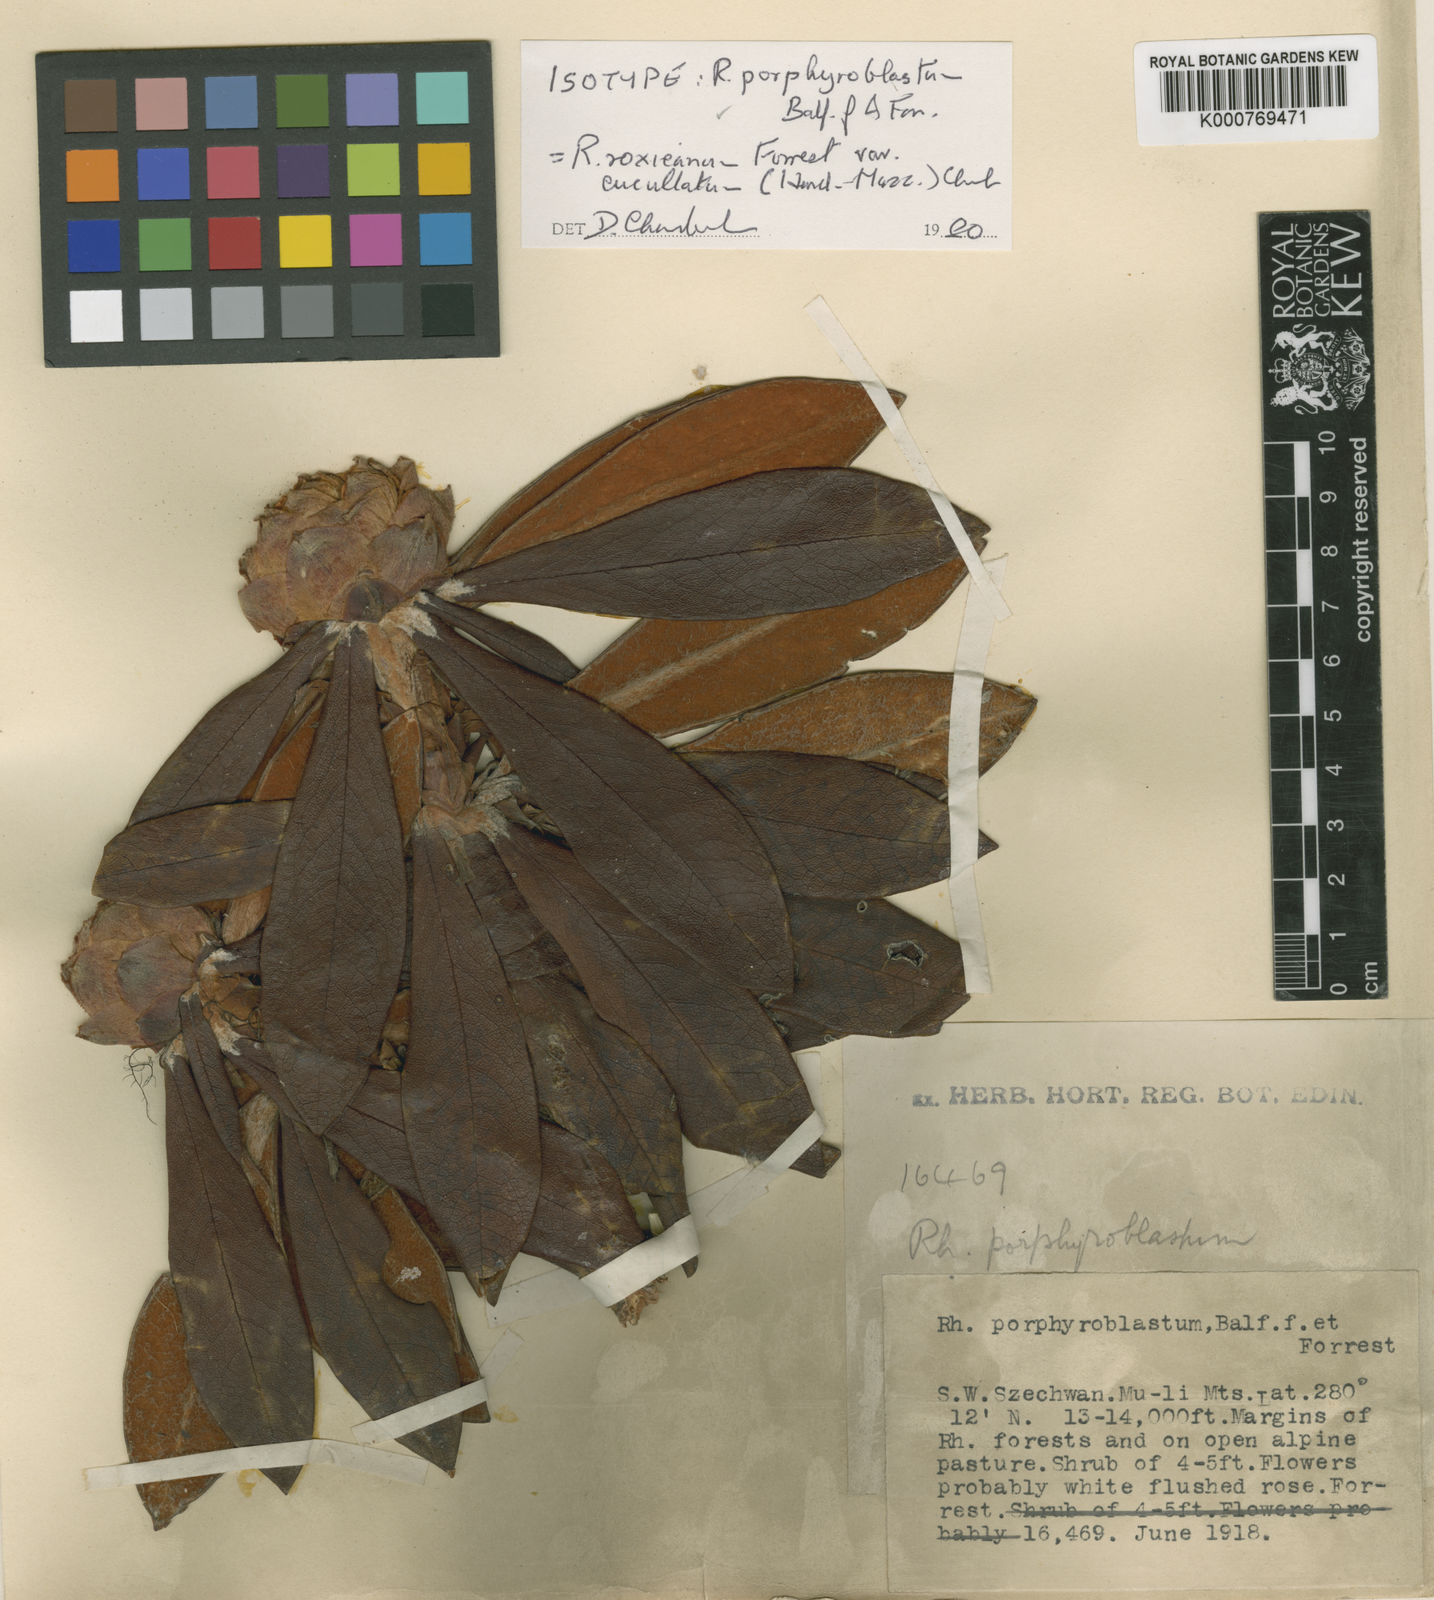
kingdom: Plantae
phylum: Tracheophyta
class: Magnoliopsida
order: Ericales
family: Ericaceae
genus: Rhododendron
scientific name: Rhododendron roxieanum
